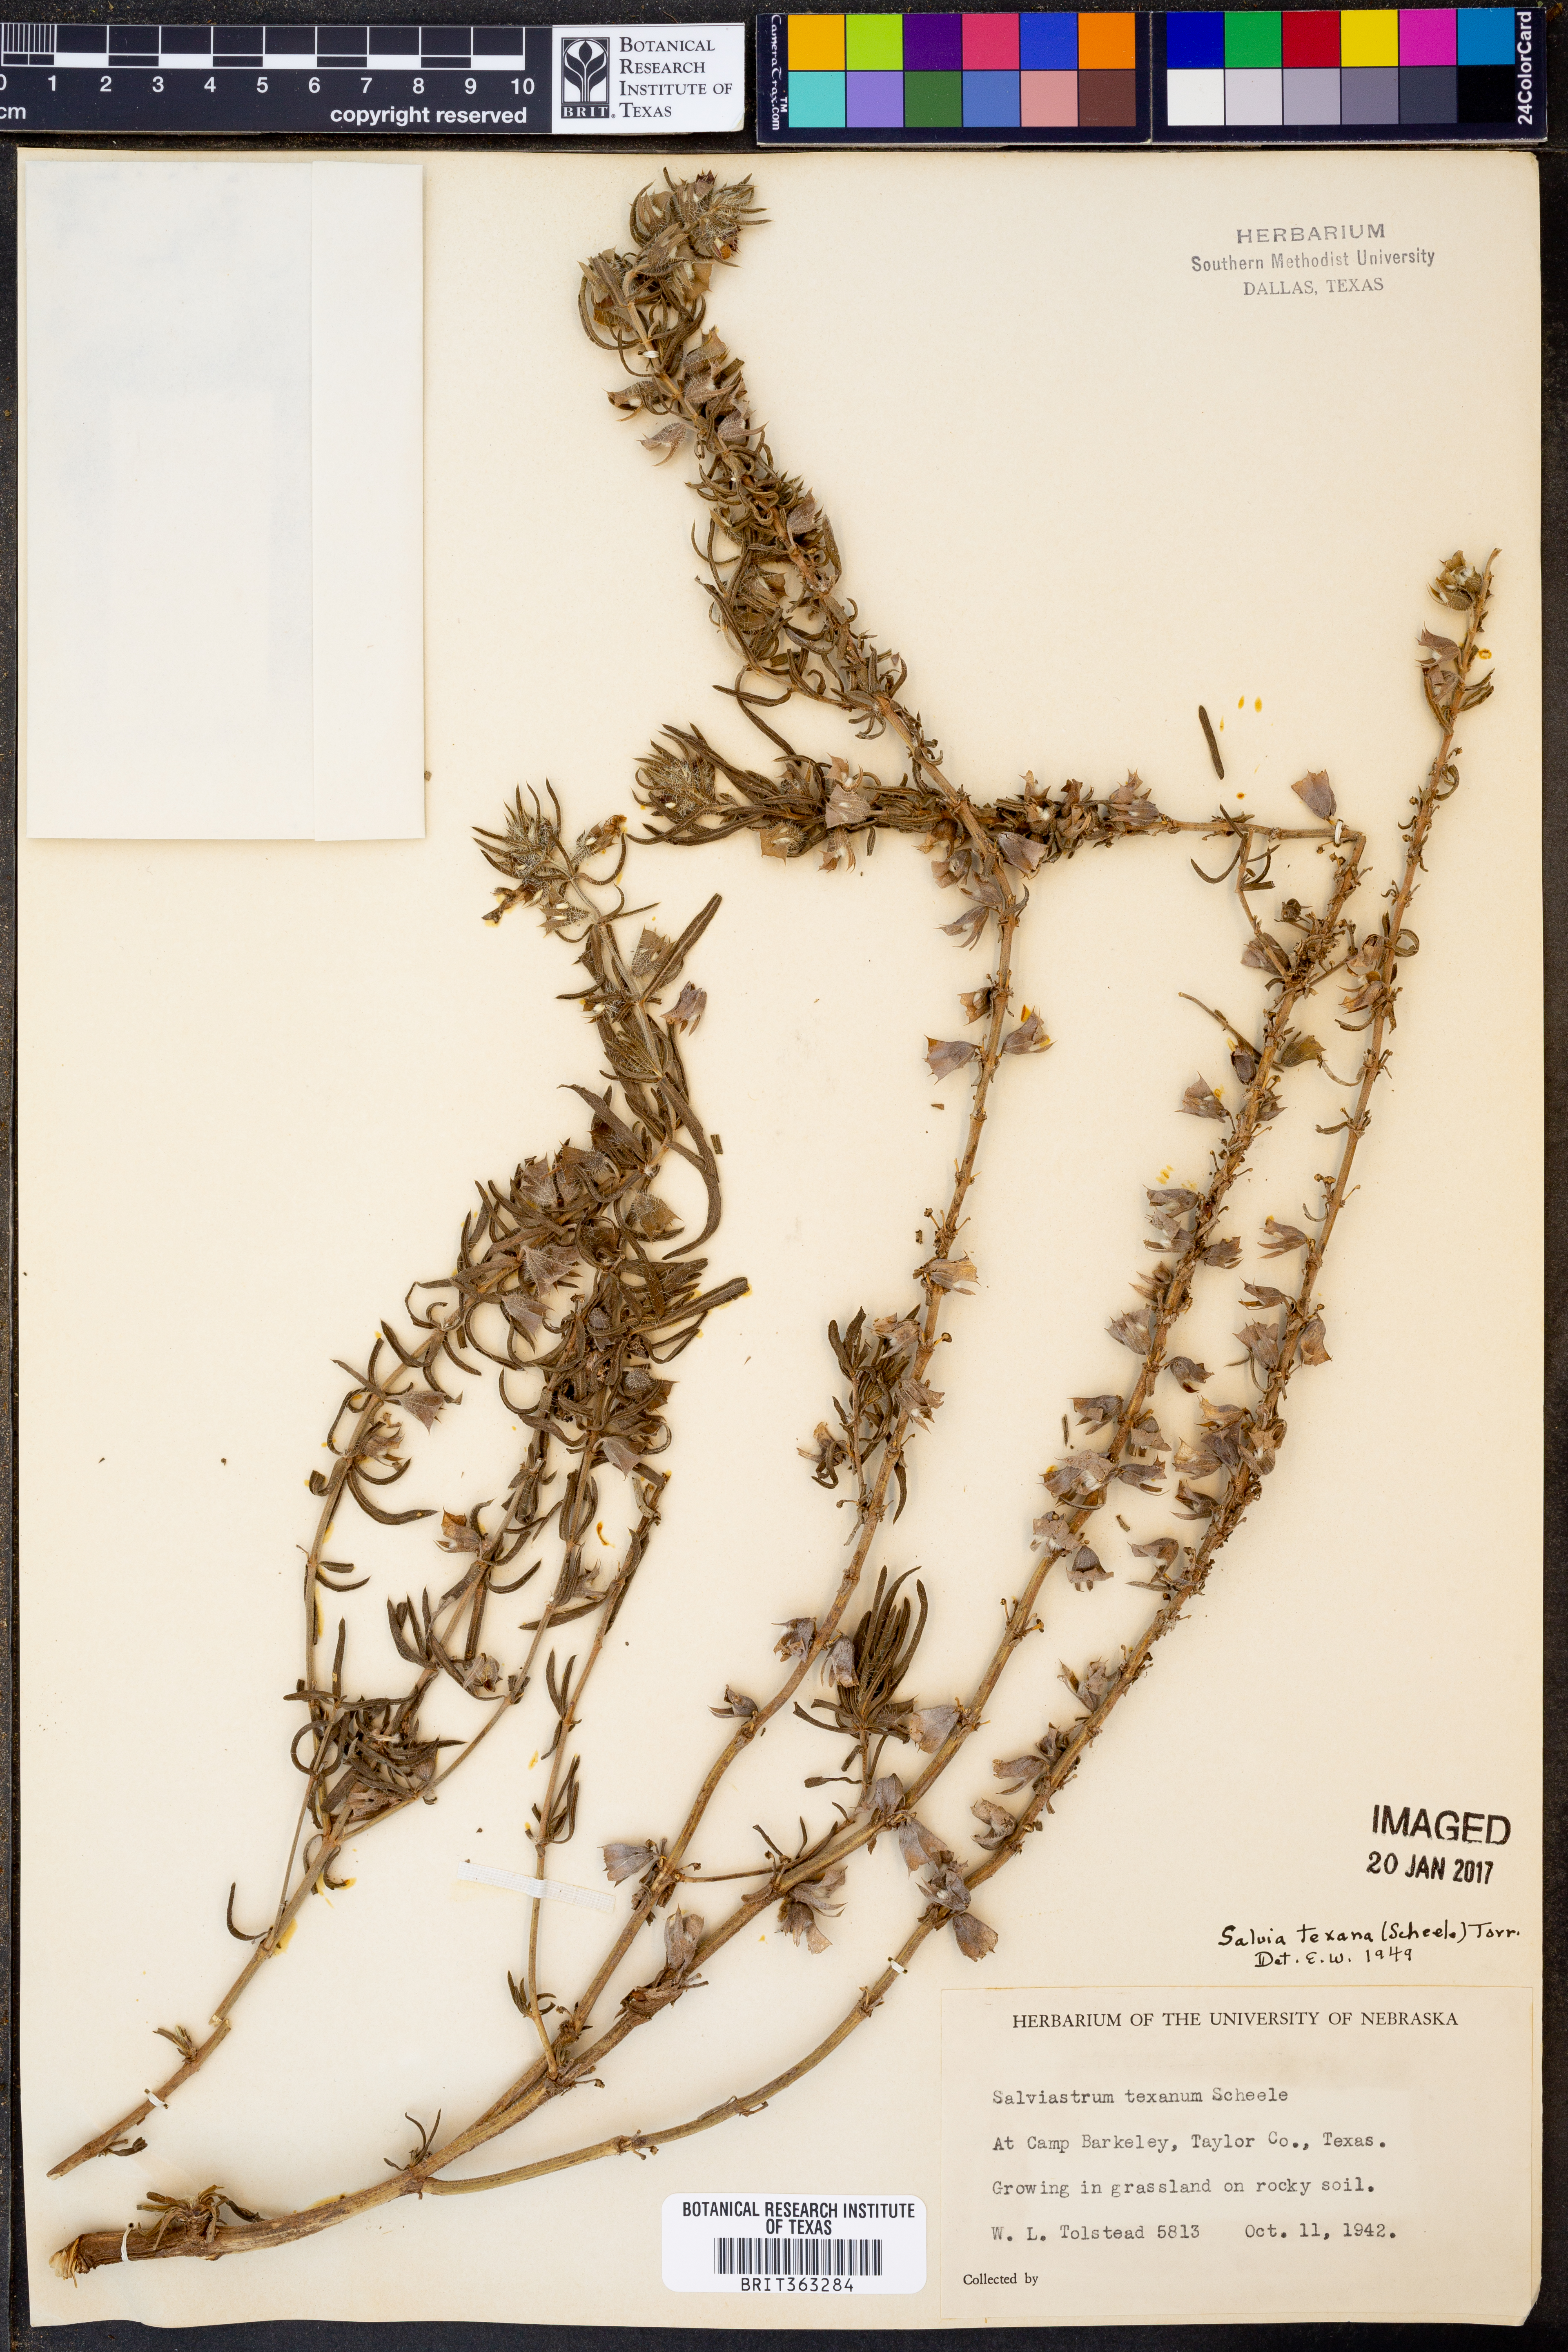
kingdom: Plantae
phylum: Tracheophyta
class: Magnoliopsida
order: Lamiales
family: Lamiaceae
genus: Salvia
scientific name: Salvia texana
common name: Texas sage
